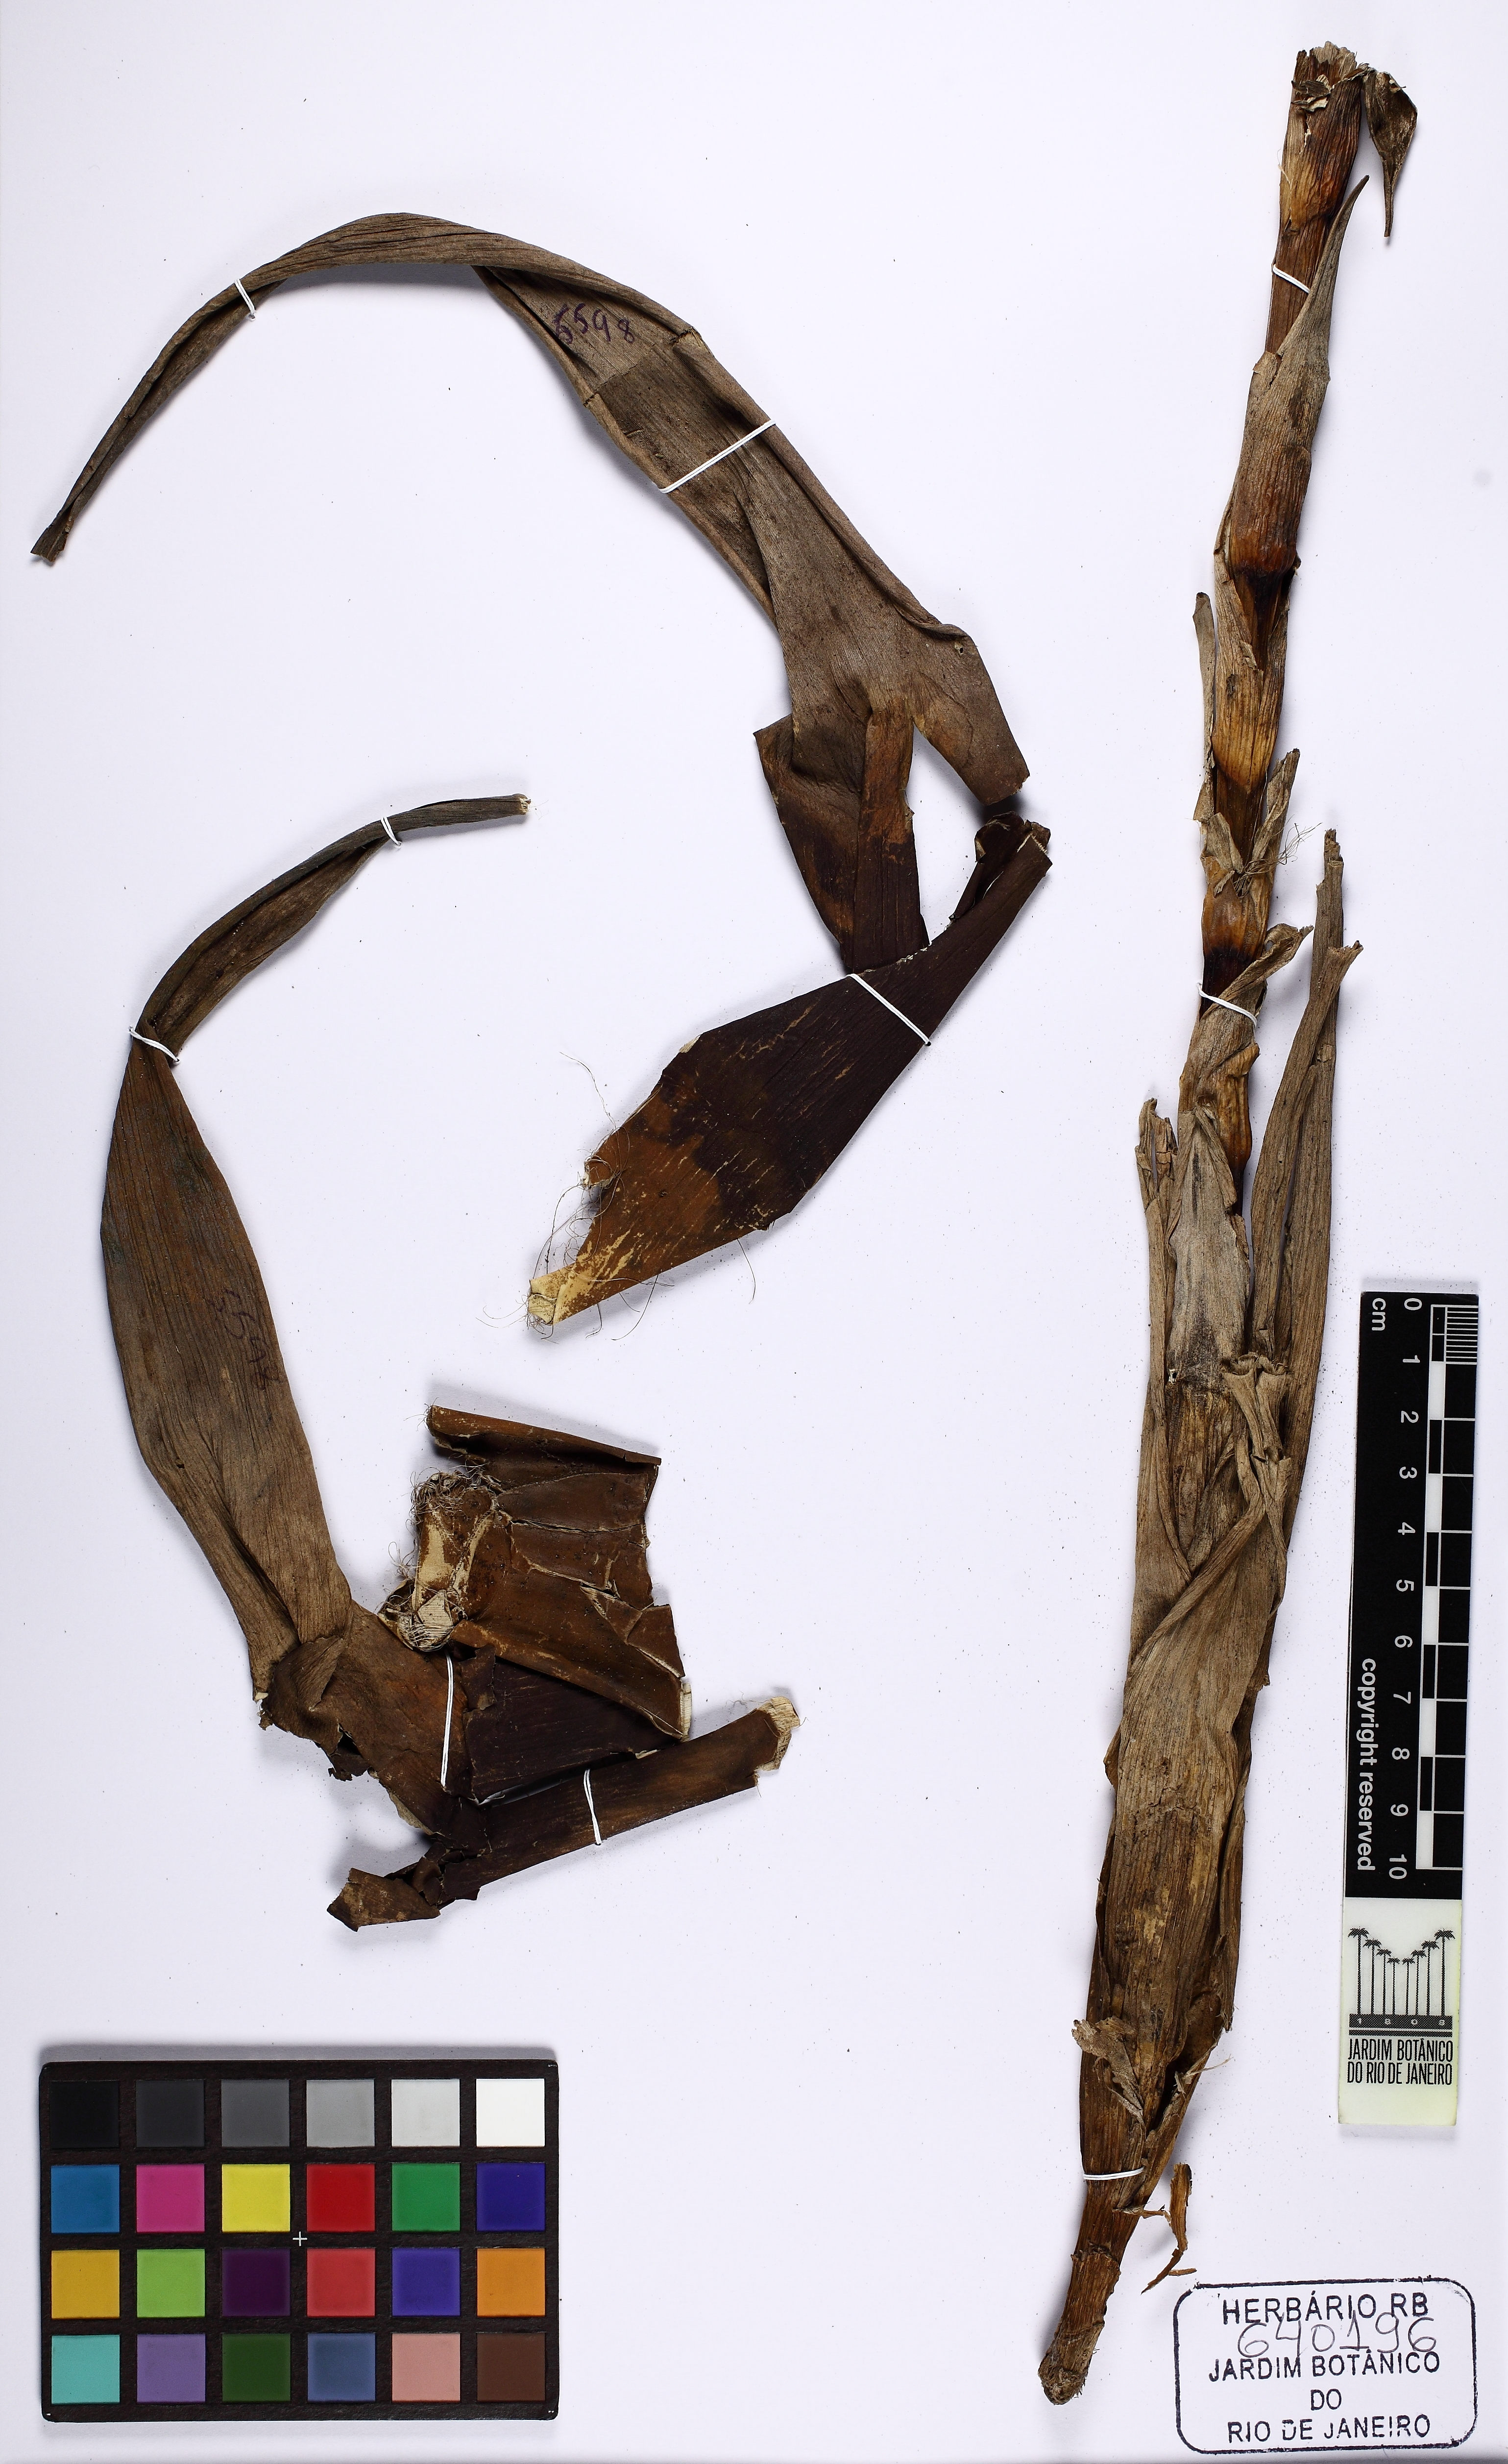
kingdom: Plantae
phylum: Tracheophyta
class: Liliopsida
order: Poales
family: Bromeliaceae
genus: Stigmatodon
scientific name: Stigmatodon apparicianus
